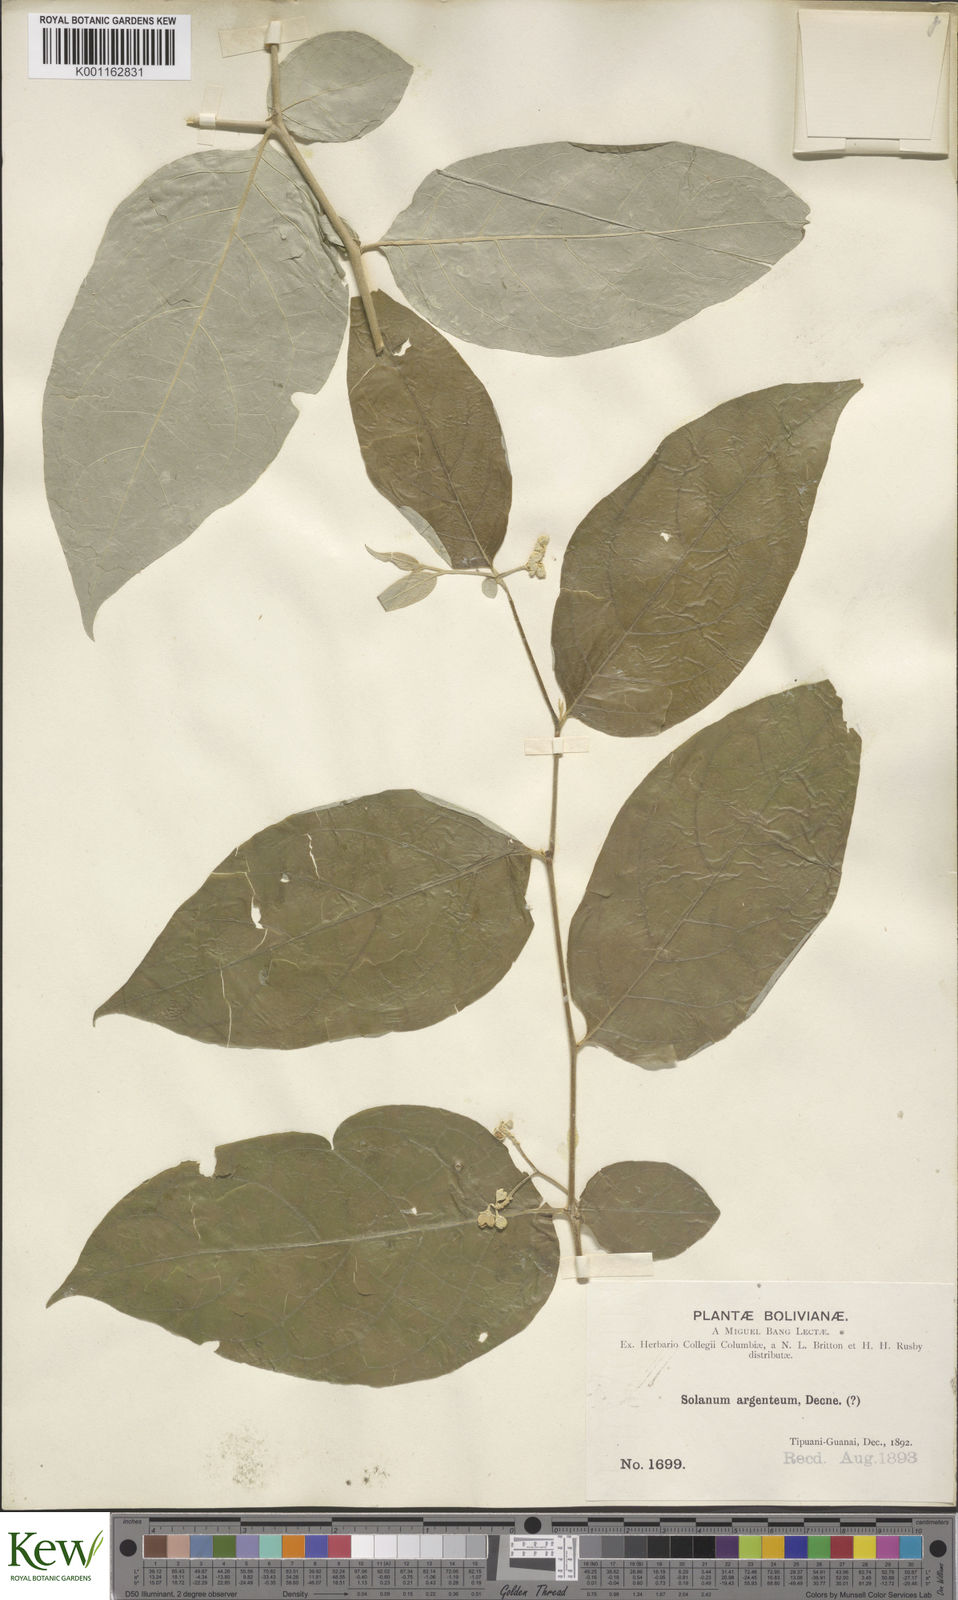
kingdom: Plantae
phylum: Tracheophyta
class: Magnoliopsida
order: Solanales
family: Solanaceae
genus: Solanum
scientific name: Solanum swartzianum
